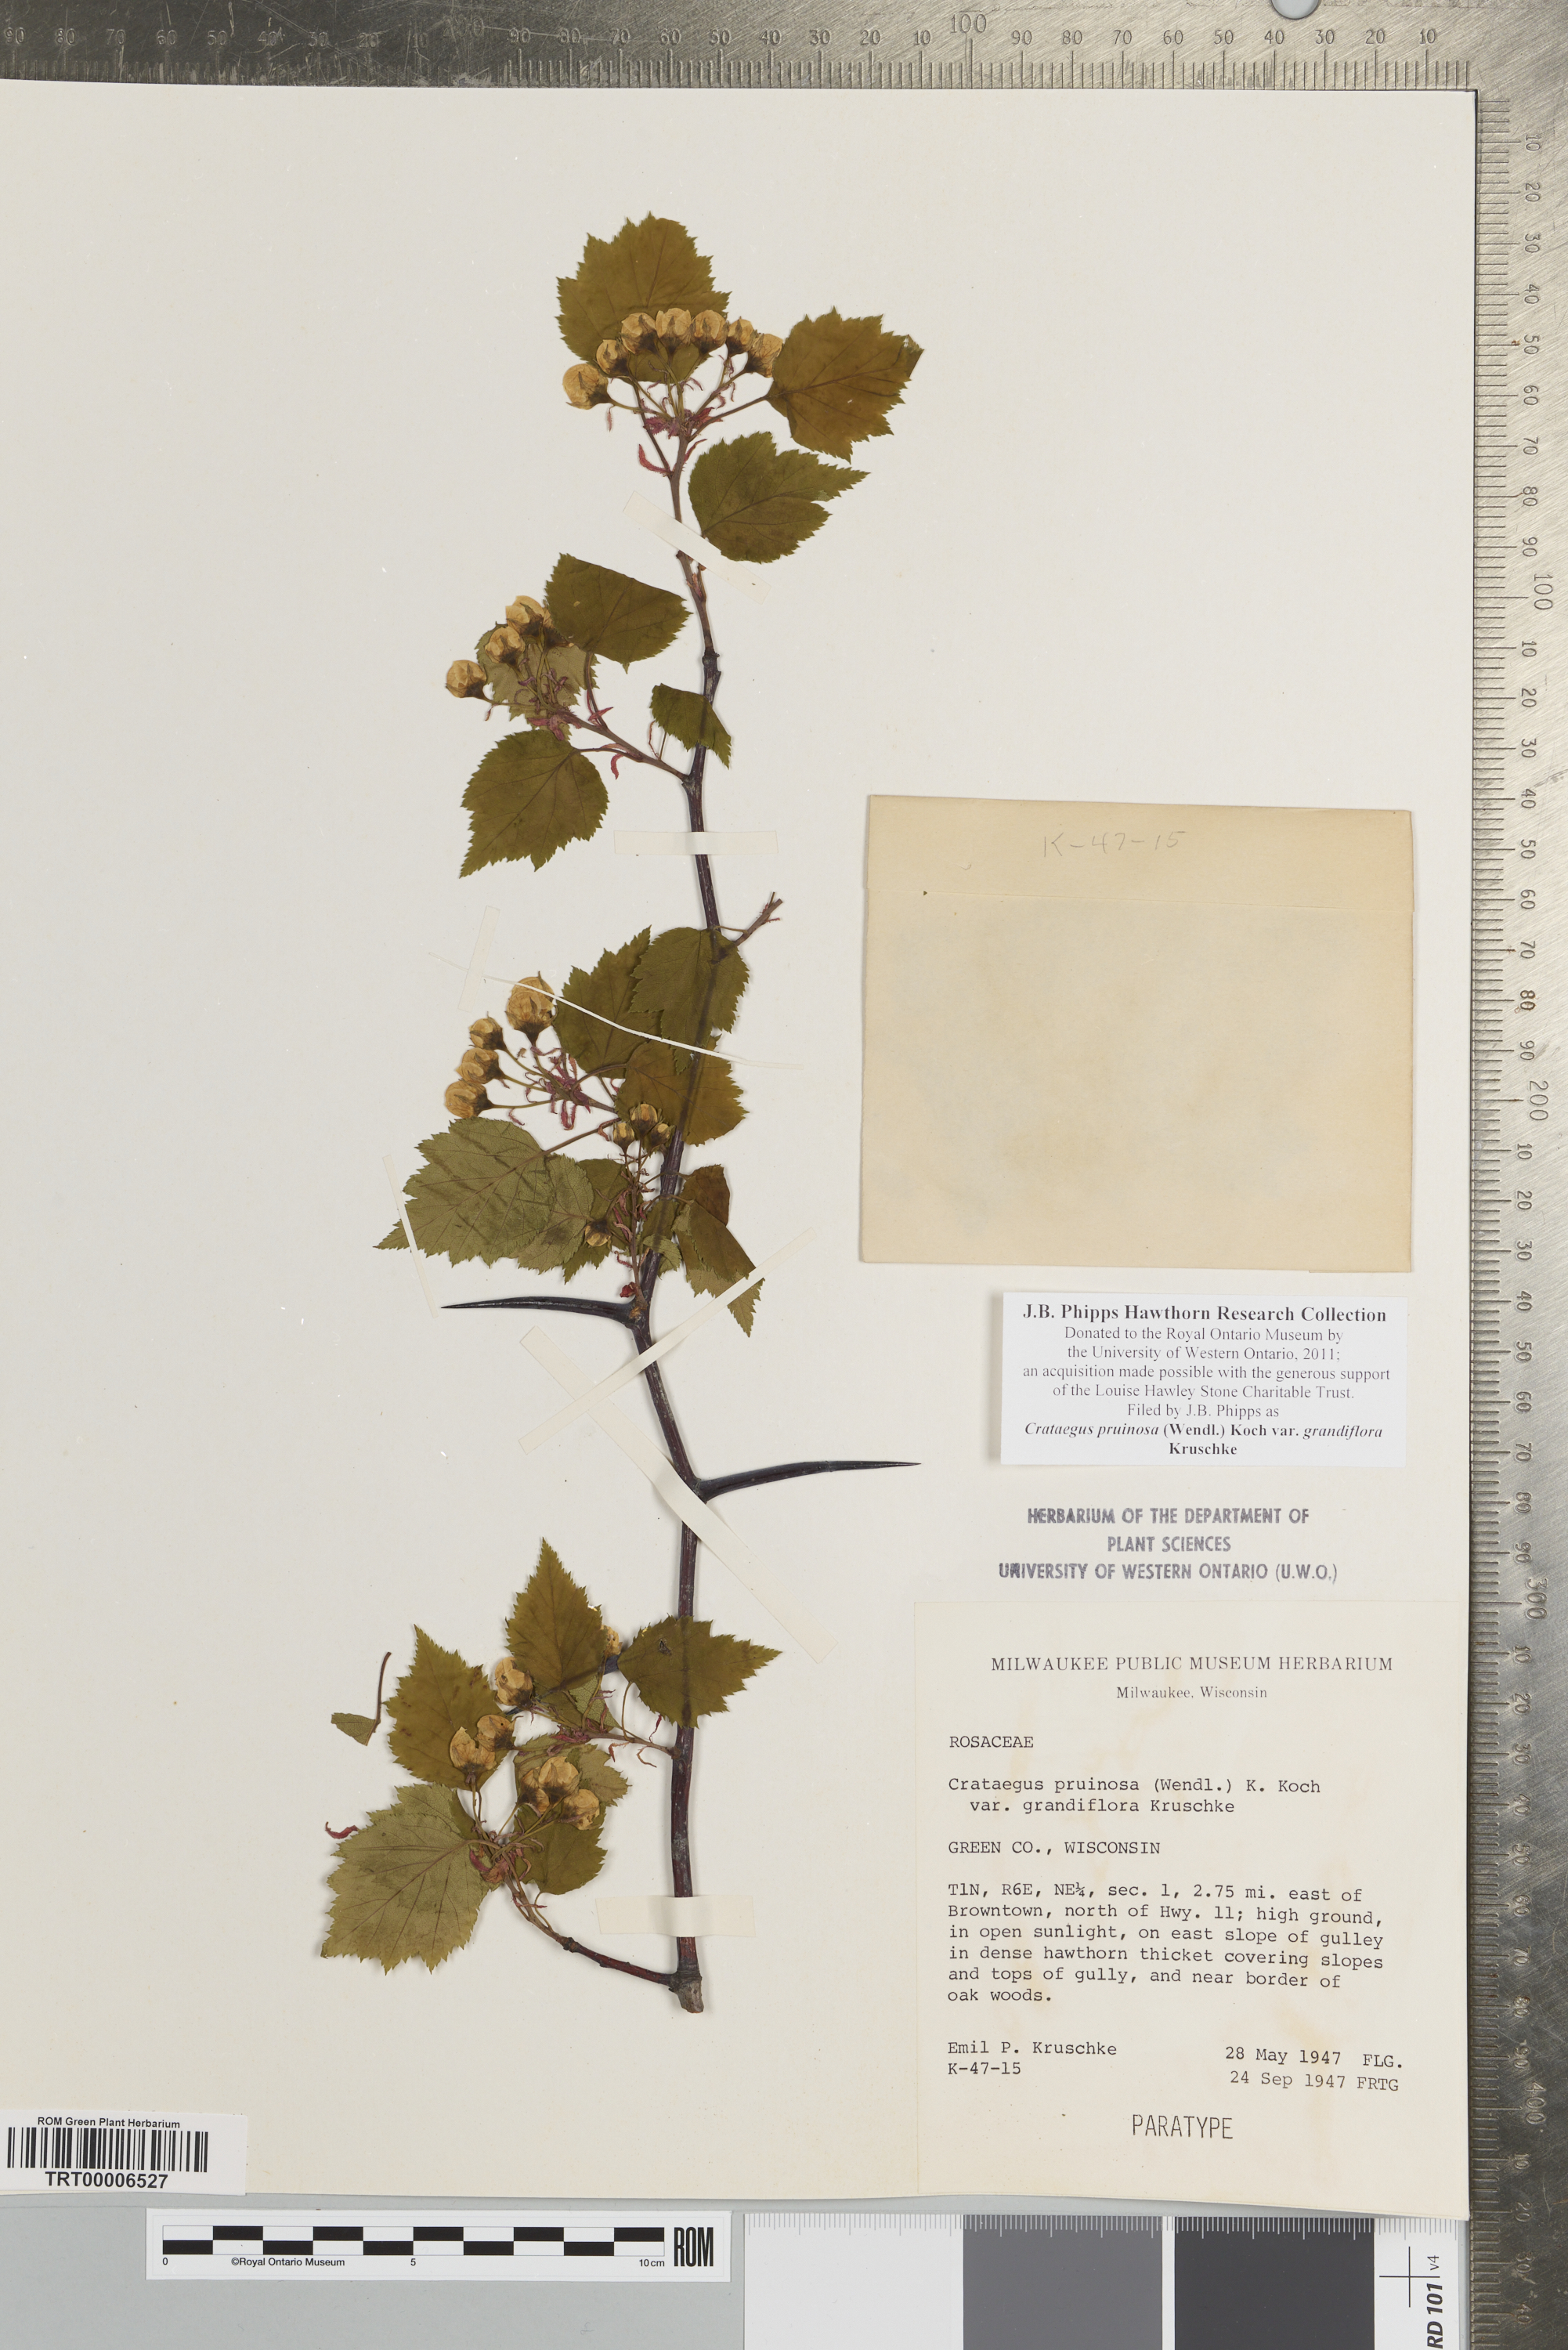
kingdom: Plantae
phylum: Tracheophyta
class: Magnoliopsida
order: Rosales
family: Rosaceae
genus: Crataegus
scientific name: Crataegus pruinosa
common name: Waxy-fruit hawthorn
